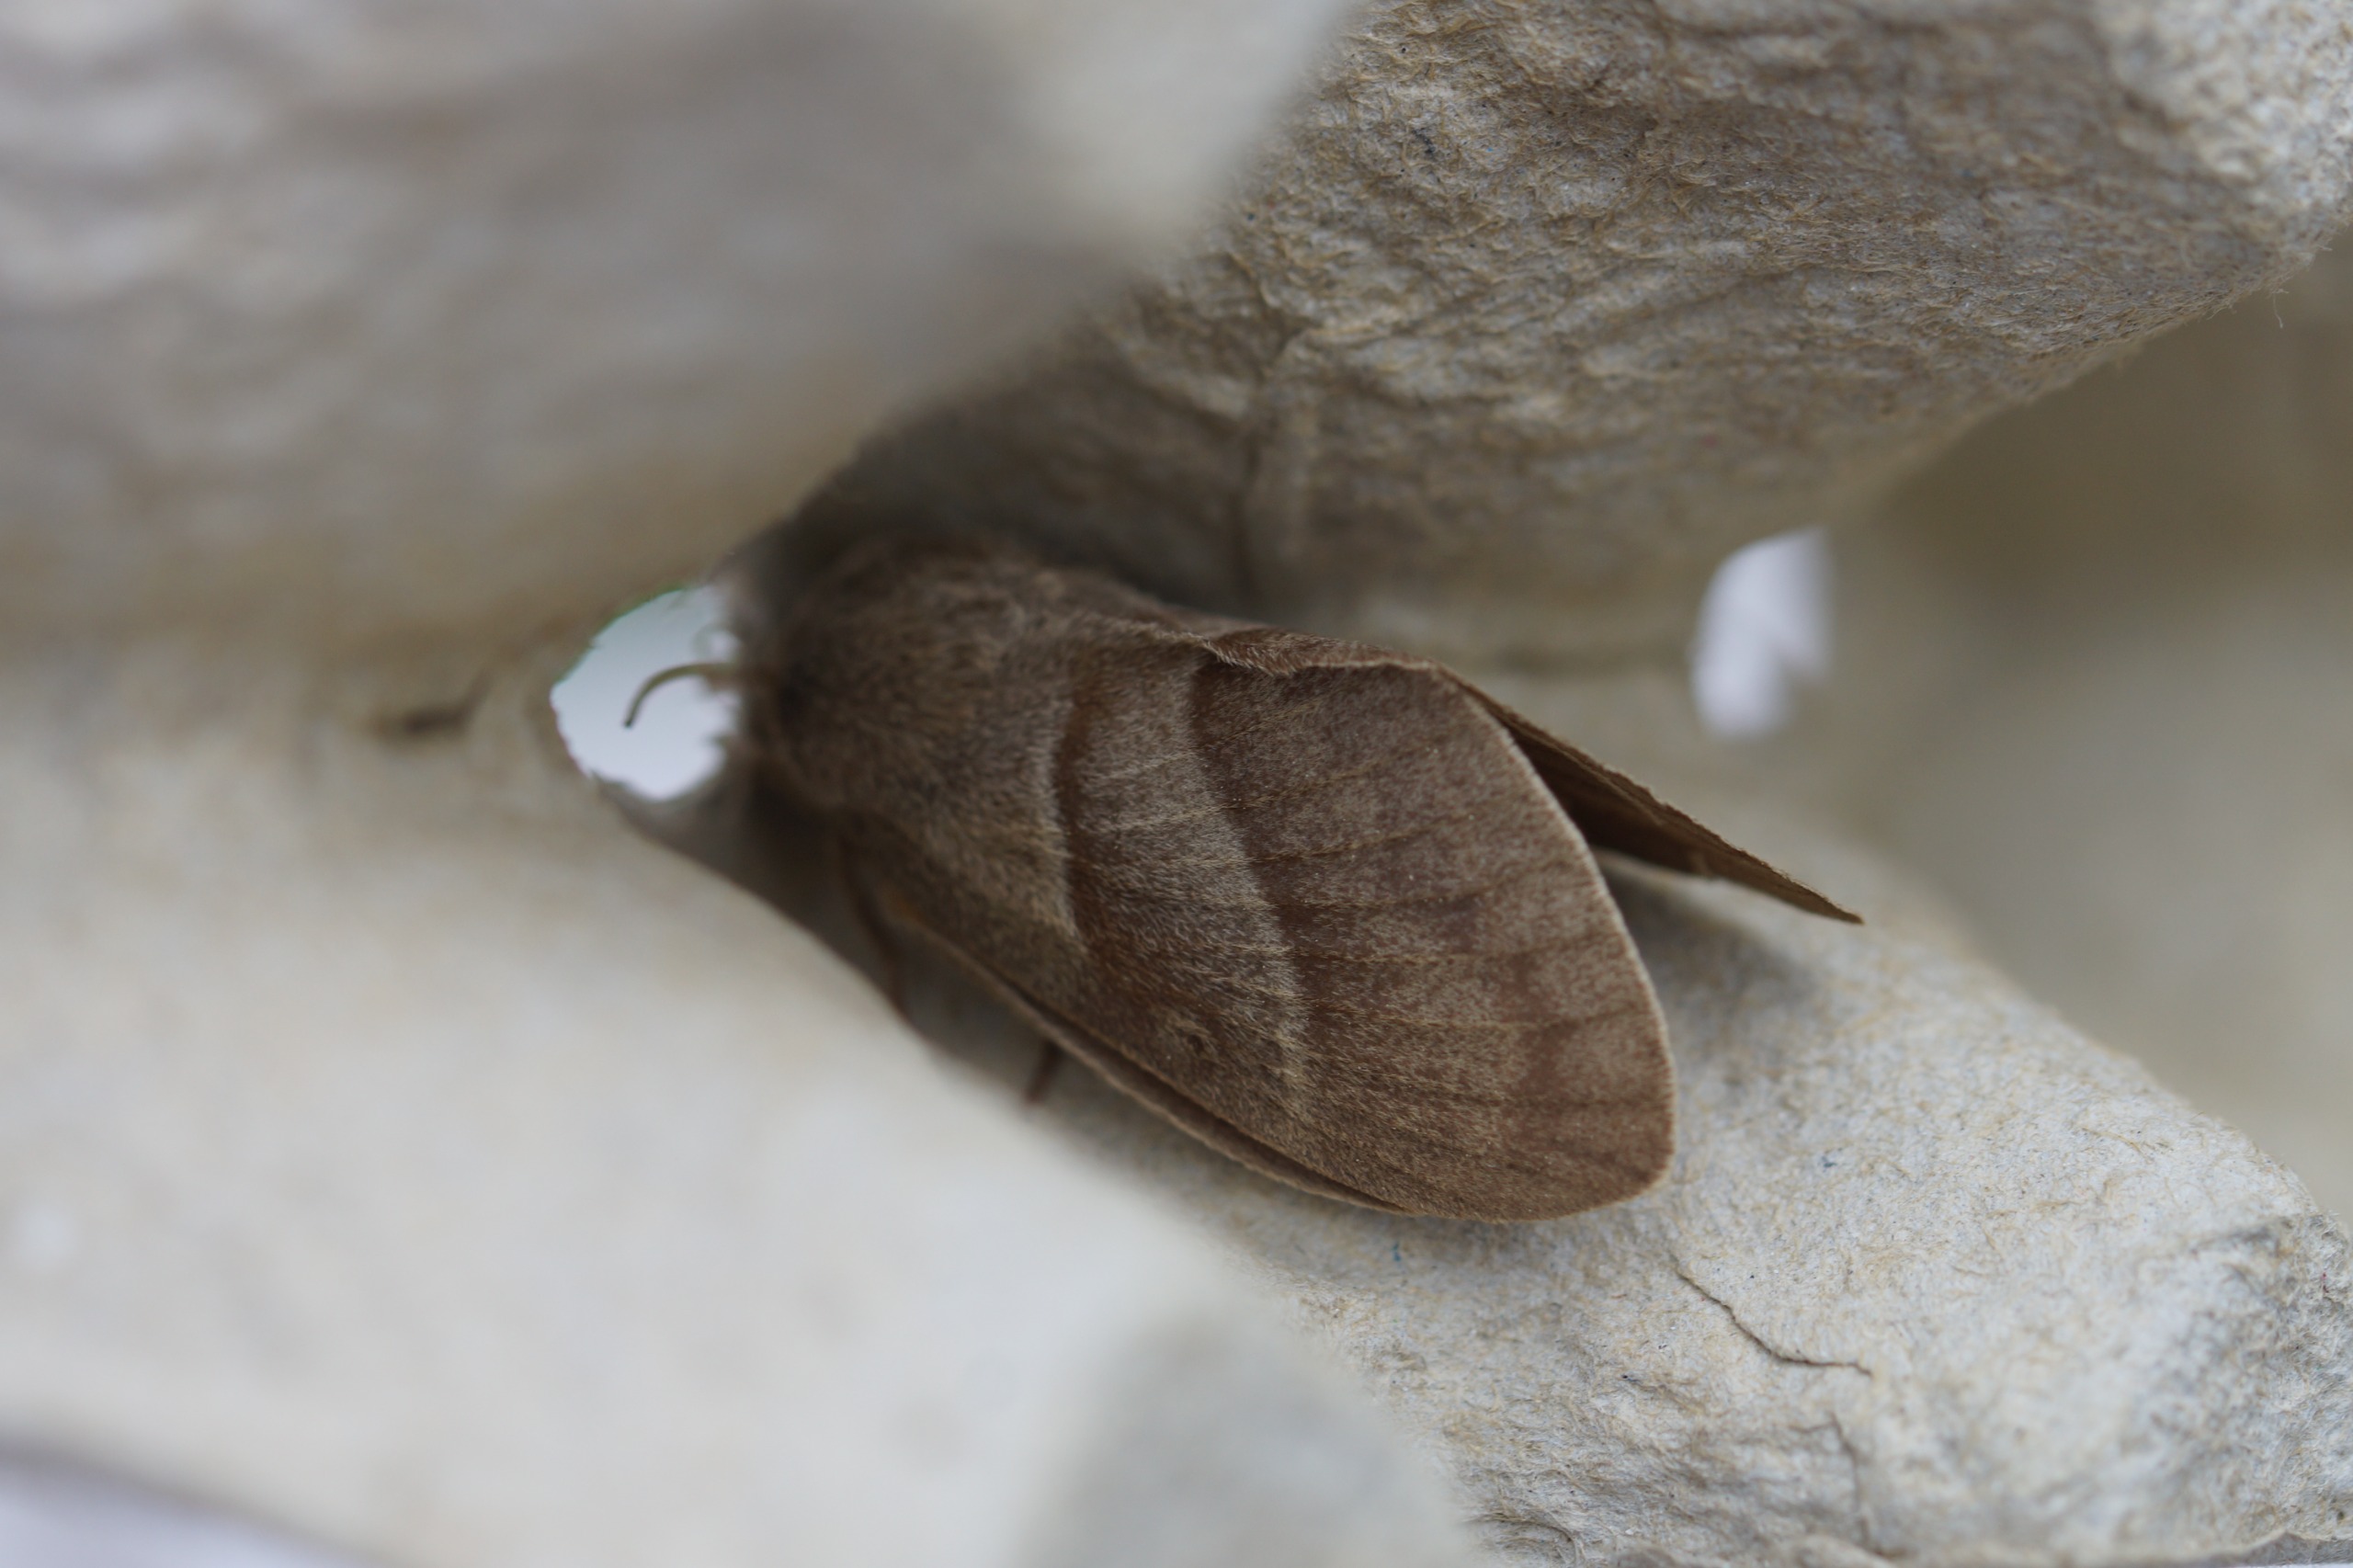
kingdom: Animalia
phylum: Arthropoda
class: Insecta
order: Lepidoptera
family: Lasiocampidae
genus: Macrothylacia
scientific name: Macrothylacia rubi
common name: Brombærspinder
